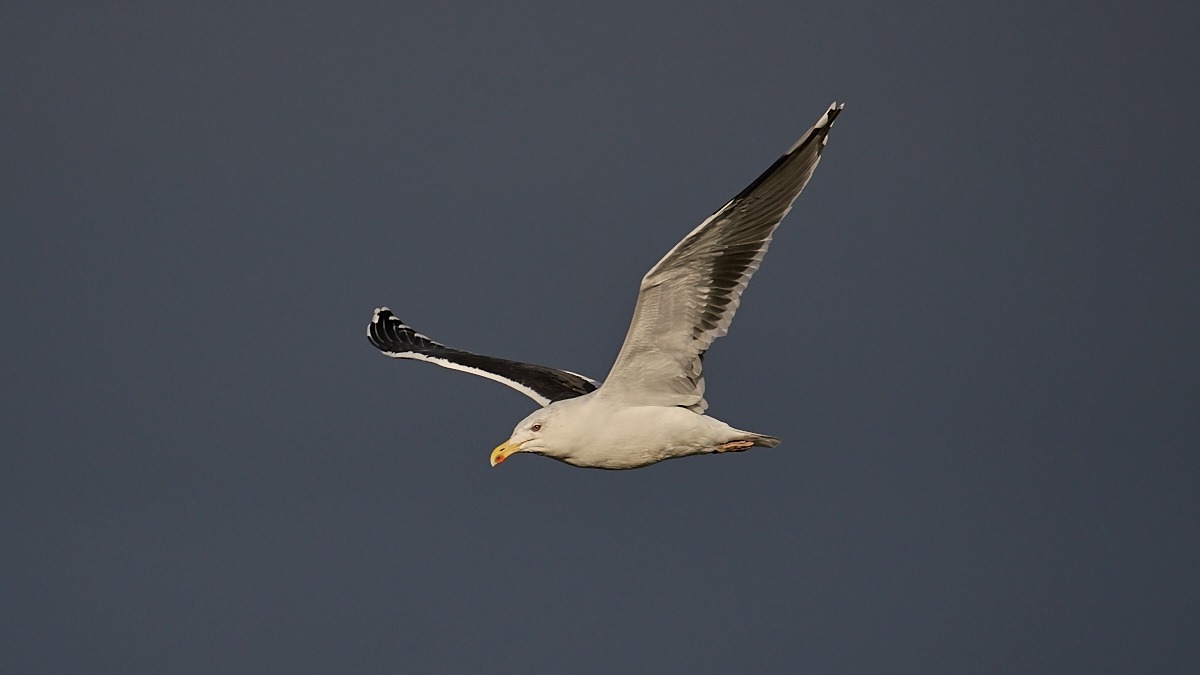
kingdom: Animalia
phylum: Chordata
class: Aves
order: Charadriiformes
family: Laridae
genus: Larus
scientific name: Larus marinus
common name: Svartbag
